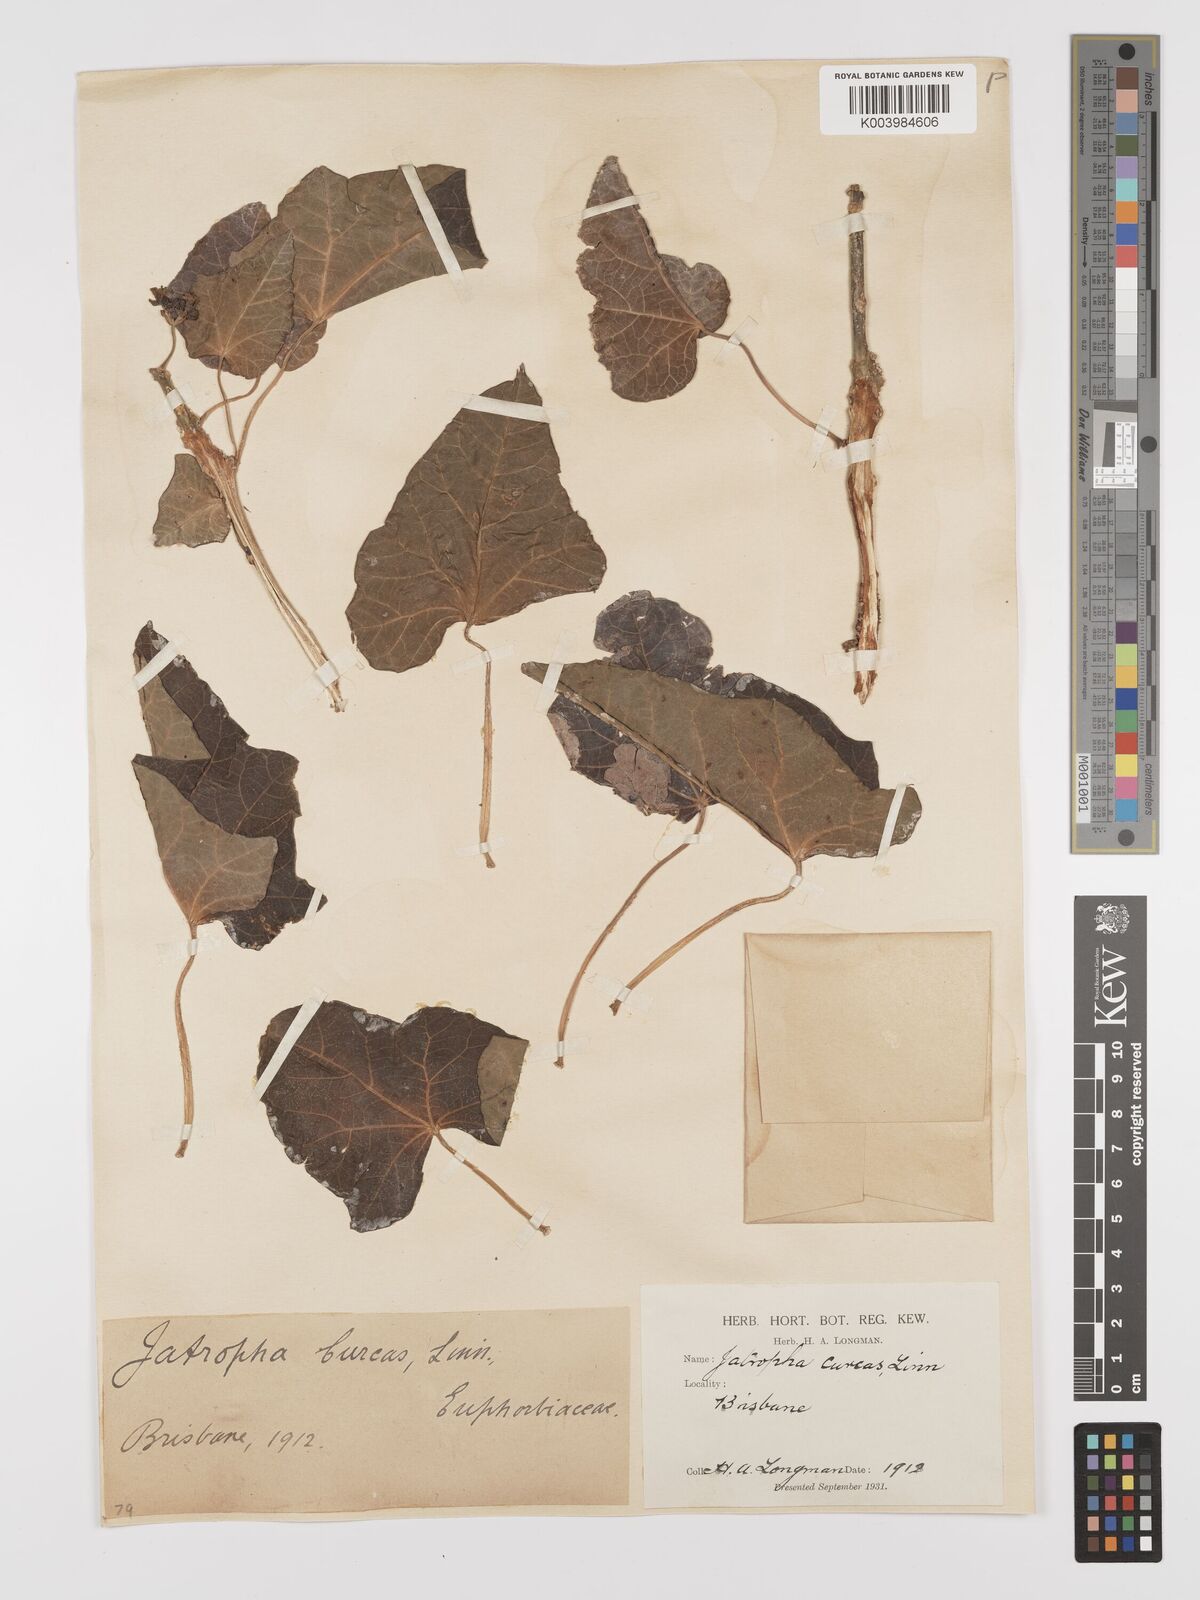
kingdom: Plantae
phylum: Tracheophyta
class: Magnoliopsida
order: Malpighiales
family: Euphorbiaceae
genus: Jatropha
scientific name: Jatropha curcas
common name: Barbados nut
